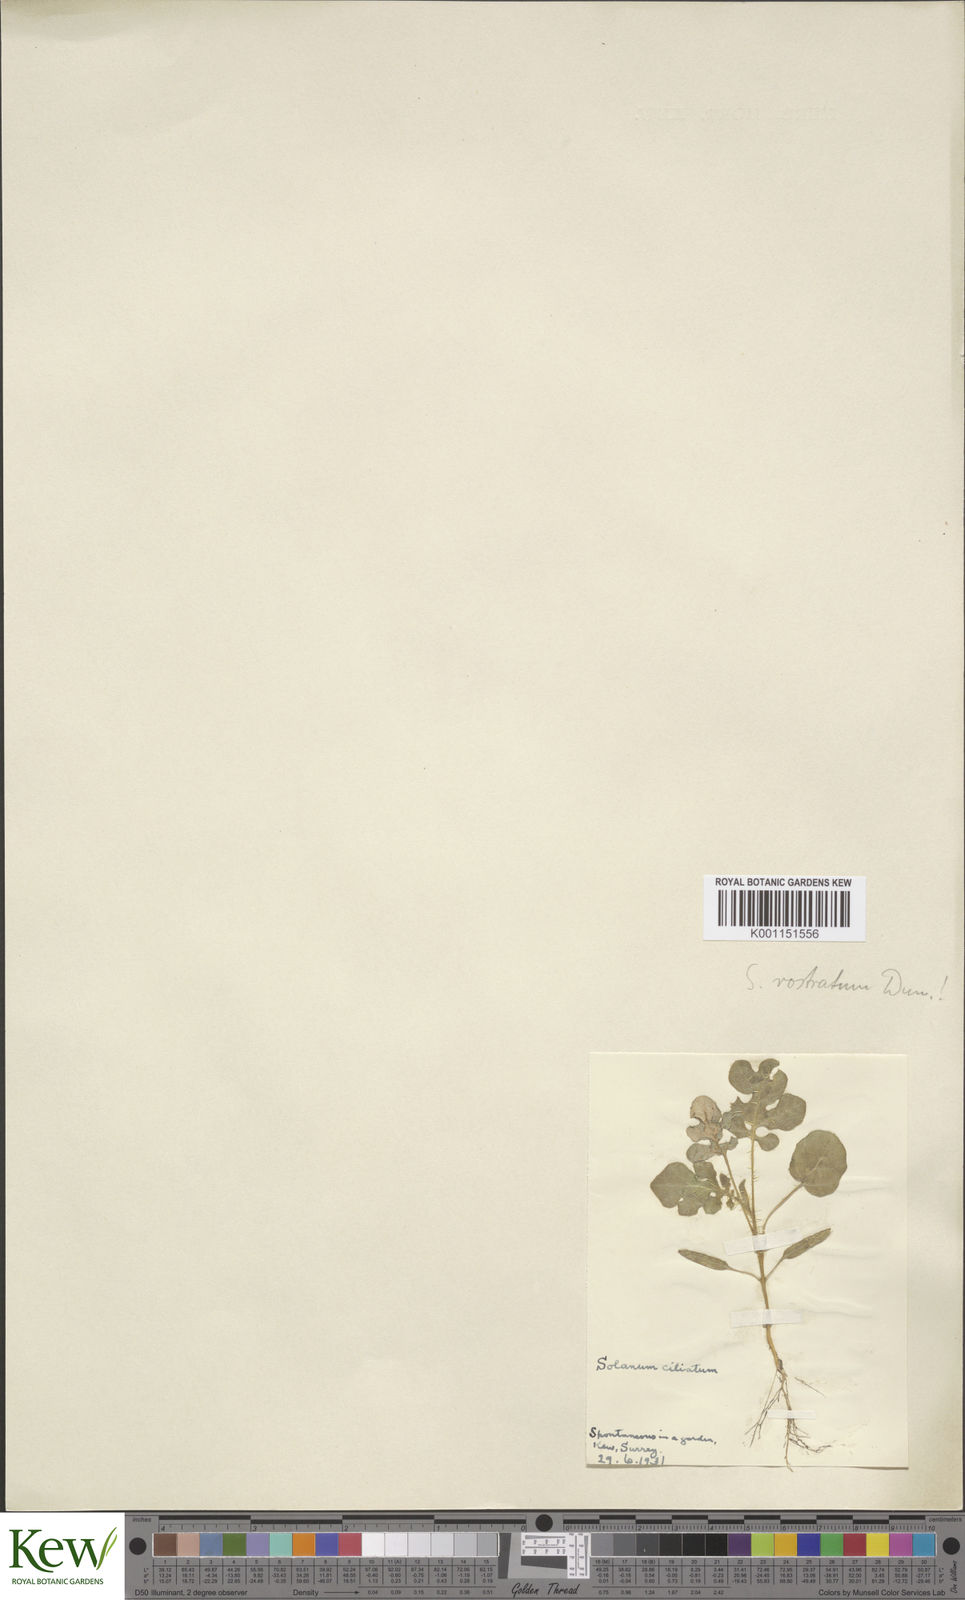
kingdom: Plantae
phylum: Tracheophyta
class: Magnoliopsida
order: Solanales
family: Solanaceae
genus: Solanum
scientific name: Solanum capsicoides
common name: Cockroach berry
